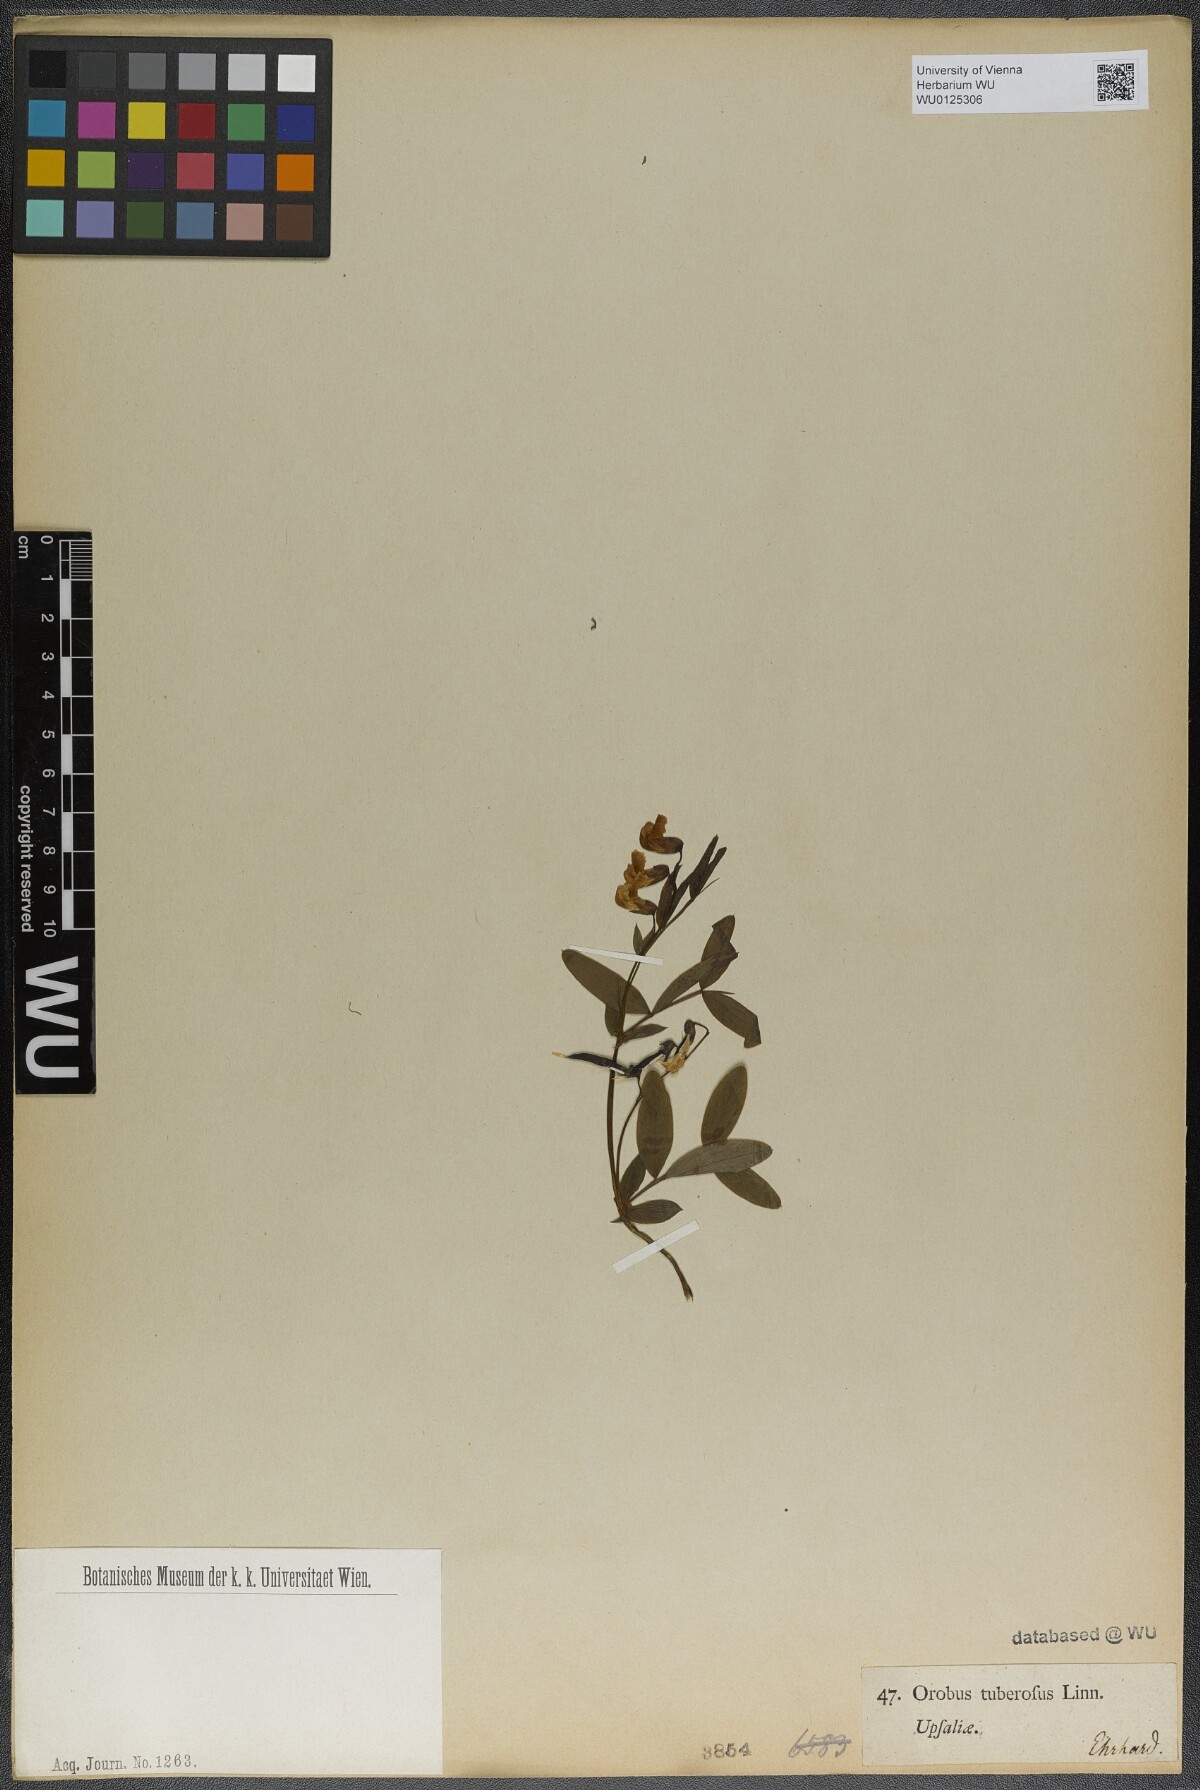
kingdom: Plantae
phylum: Tracheophyta
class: Magnoliopsida
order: Fabales
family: Fabaceae
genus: Lathyrus
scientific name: Lathyrus linifolius
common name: Bitter-vetch
